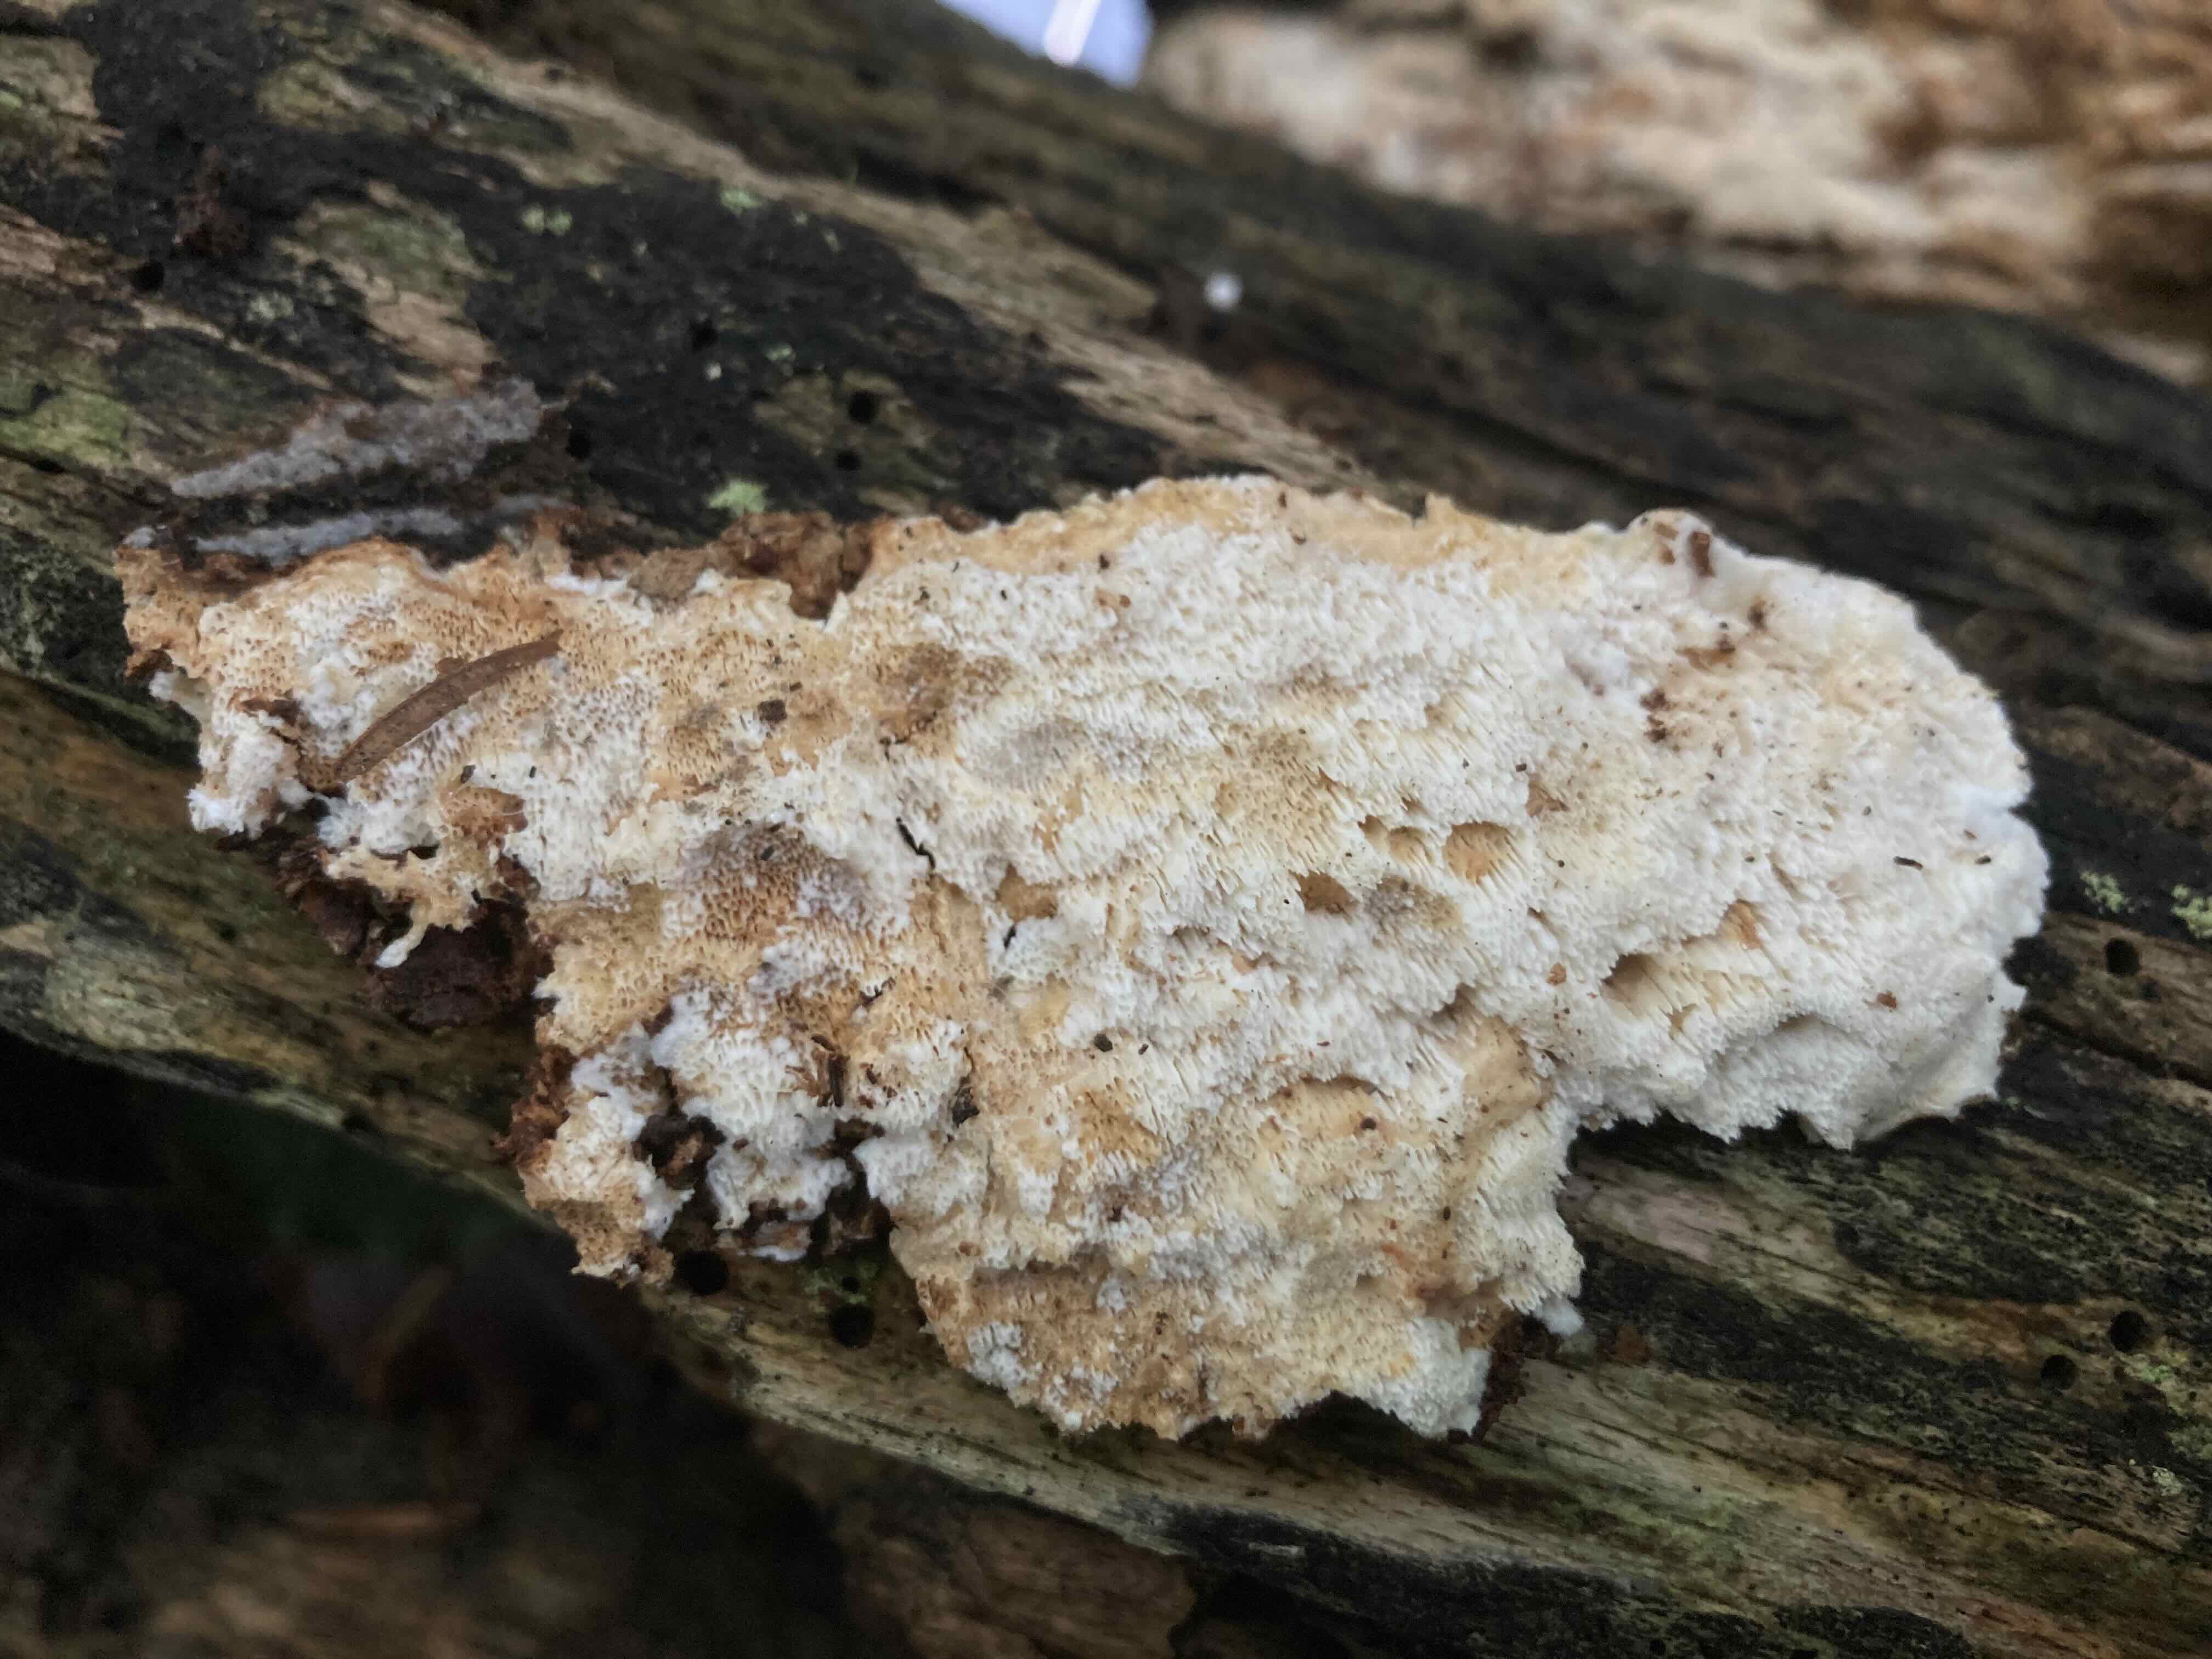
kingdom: Fungi
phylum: Basidiomycota
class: Agaricomycetes
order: Polyporales
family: Meruliaceae
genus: Mycoacia
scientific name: Mycoacia gilvescens
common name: rosa pastelporesvamp
